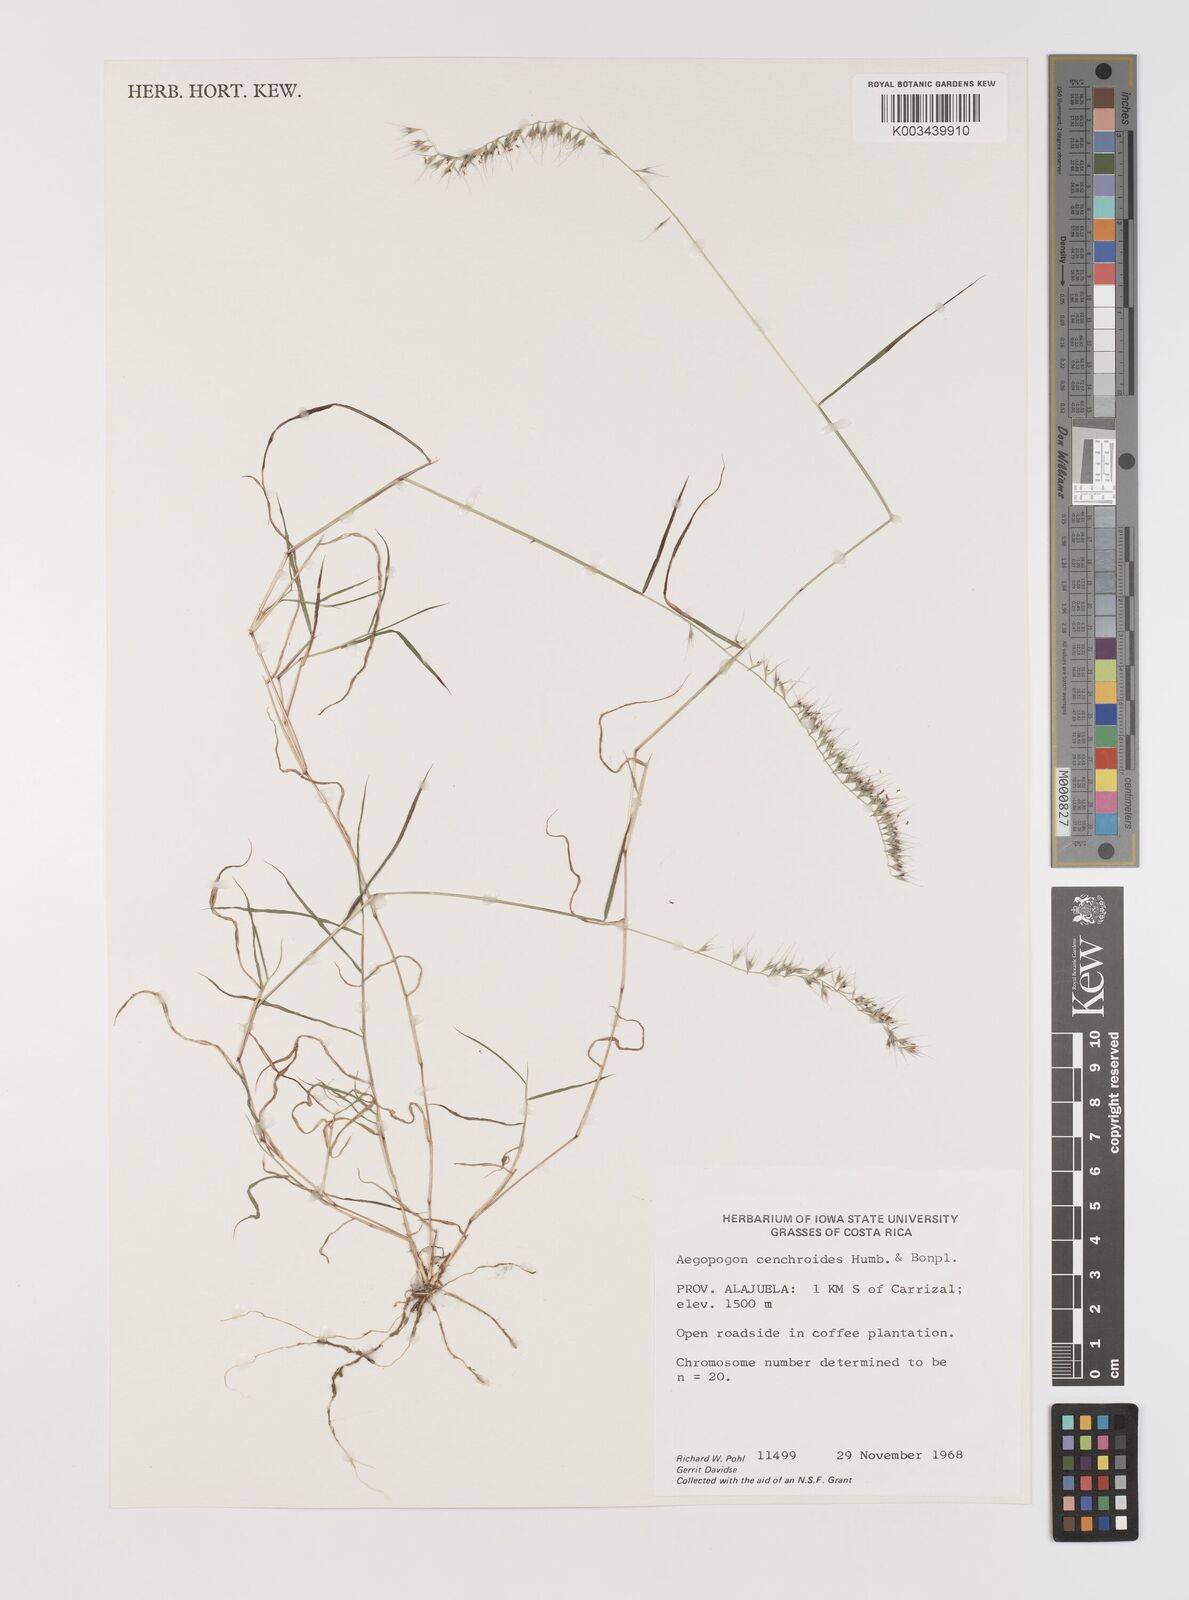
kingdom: Plantae
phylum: Tracheophyta
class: Liliopsida
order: Poales
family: Poaceae
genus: Muhlenbergia
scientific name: Muhlenbergia cenchroides
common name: Relaxgrass
